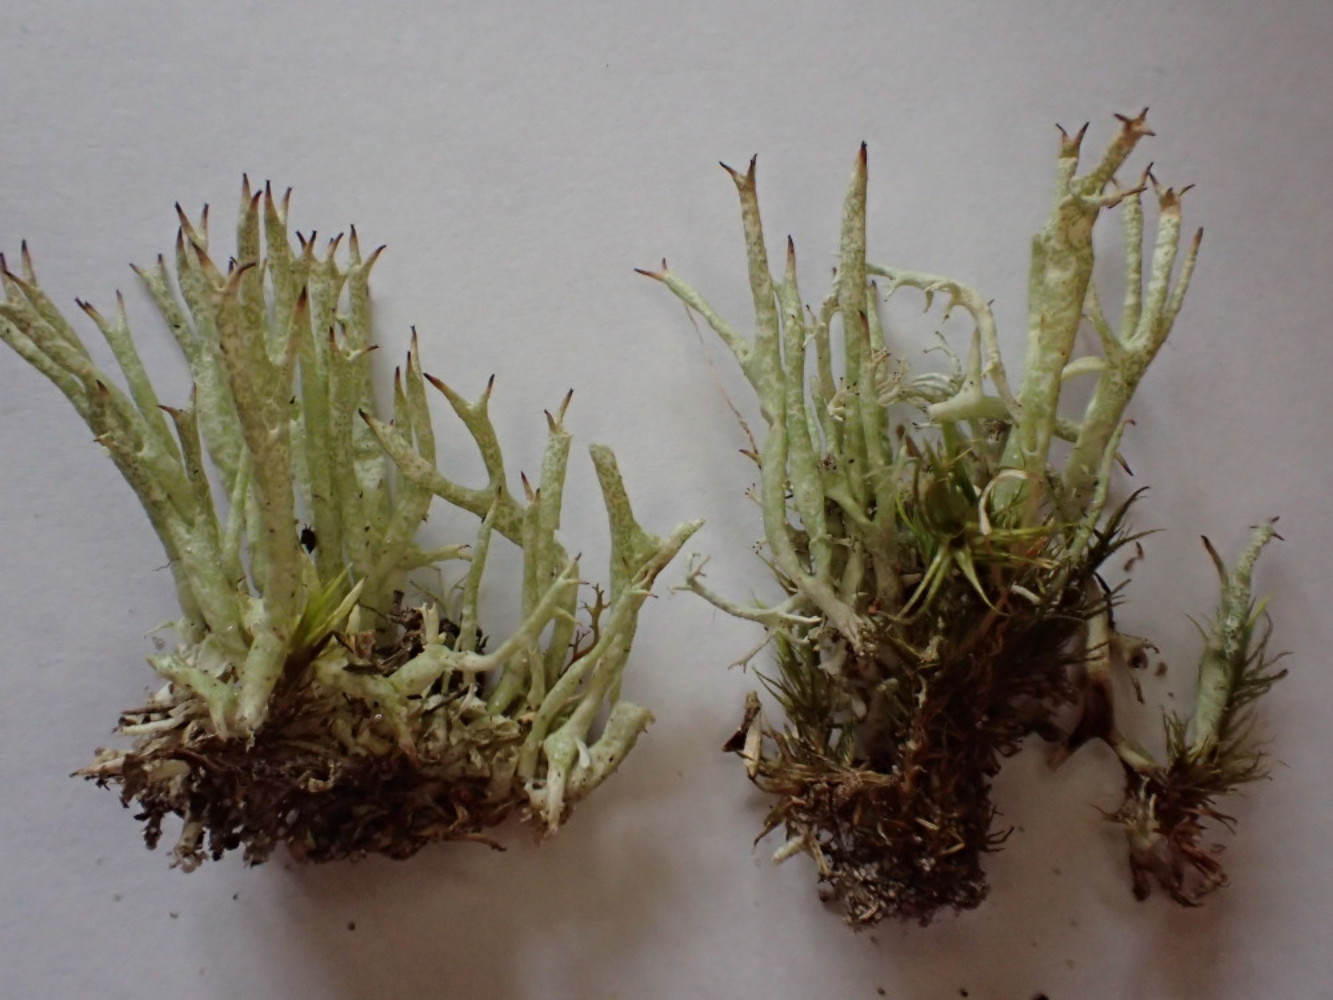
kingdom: Fungi
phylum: Ascomycota
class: Lecanoromycetes
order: Lecanorales
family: Cladoniaceae
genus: Cladonia
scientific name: Cladonia uncialis
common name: pigget bægerlav
